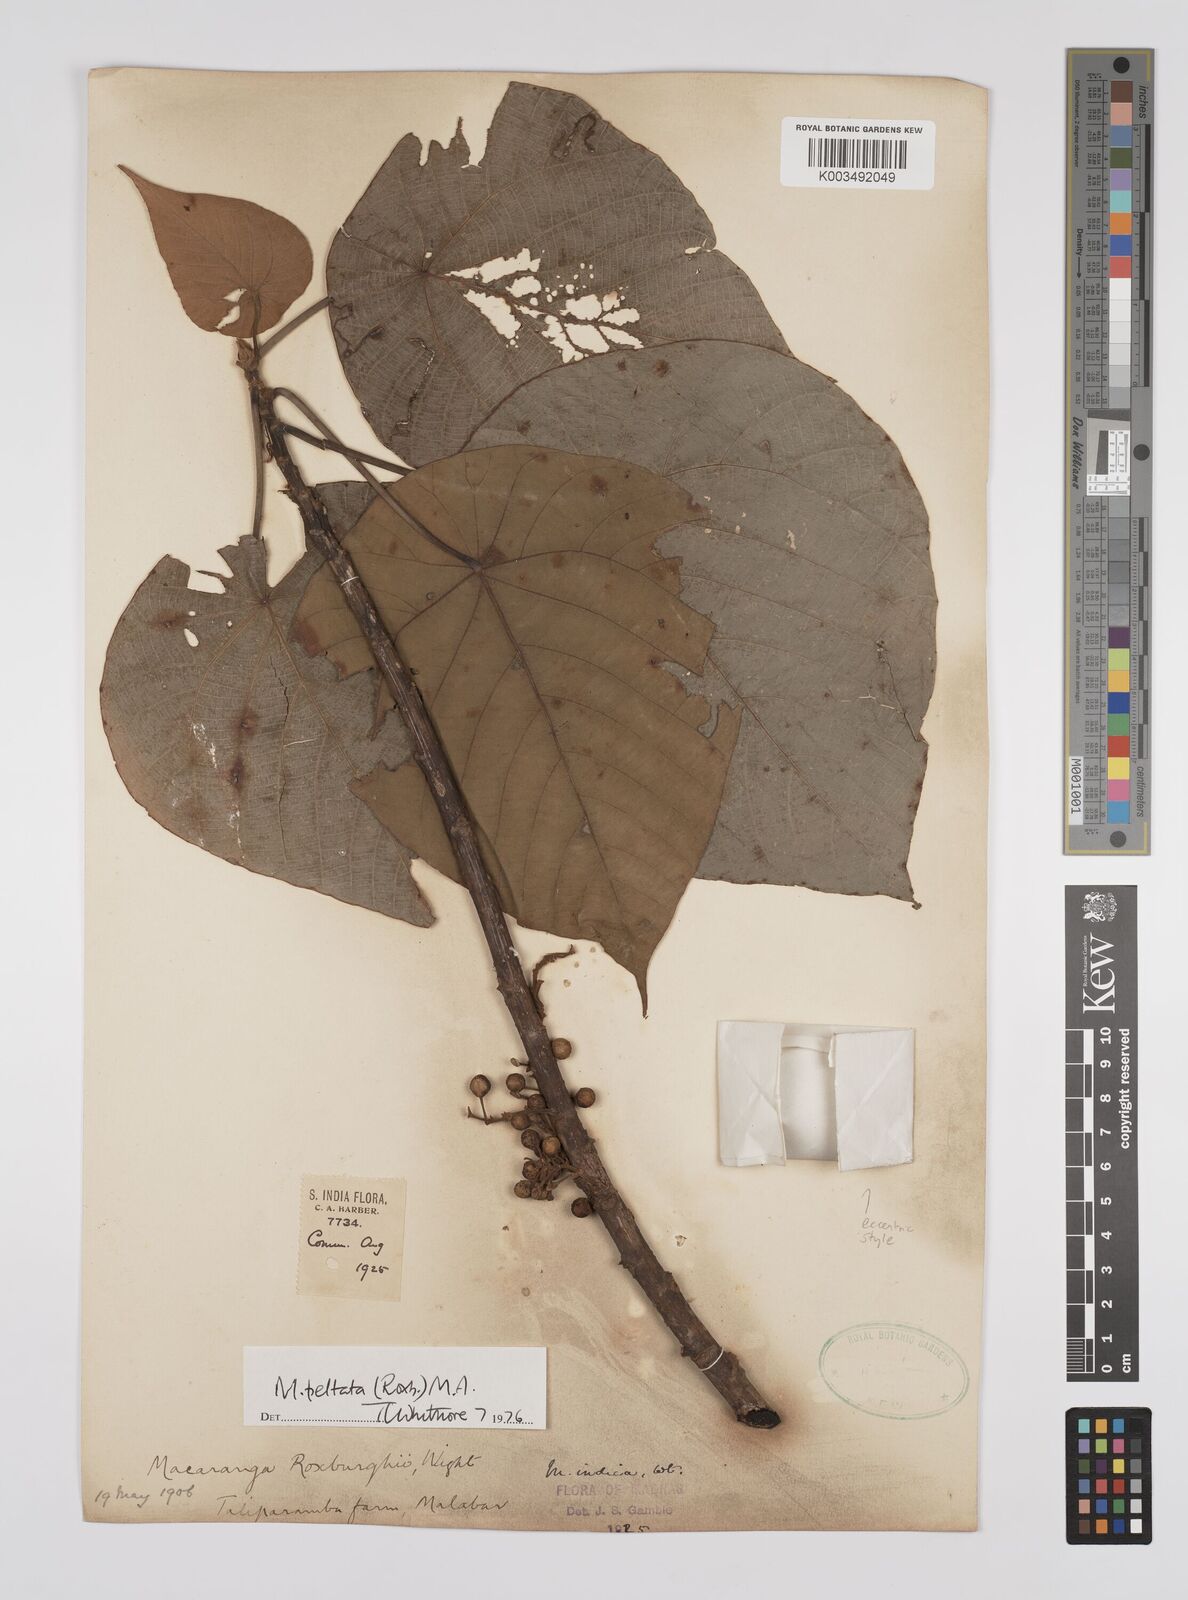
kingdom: Plantae
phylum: Tracheophyta
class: Magnoliopsida
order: Malpighiales
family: Euphorbiaceae
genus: Macaranga
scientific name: Macaranga peltata
